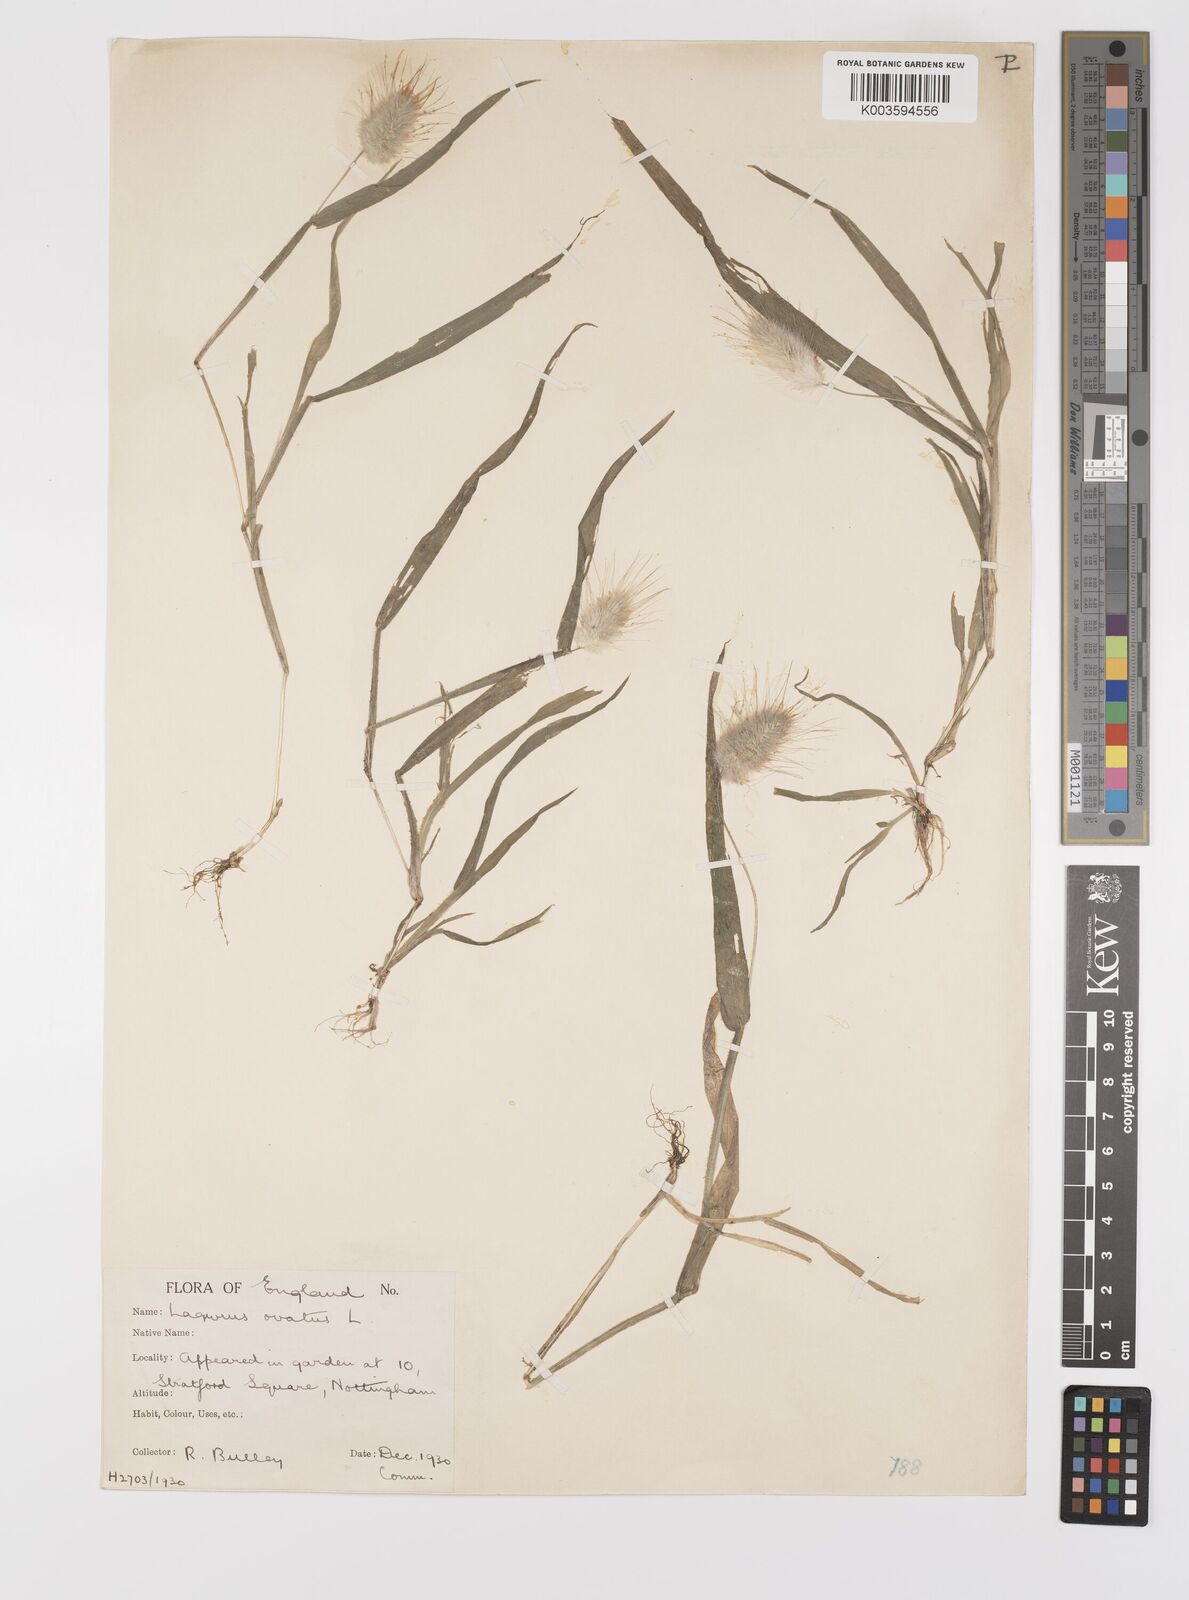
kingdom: Plantae
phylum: Tracheophyta
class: Liliopsida
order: Poales
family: Poaceae
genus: Lagurus
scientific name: Lagurus ovatus
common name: Hare's-tail
